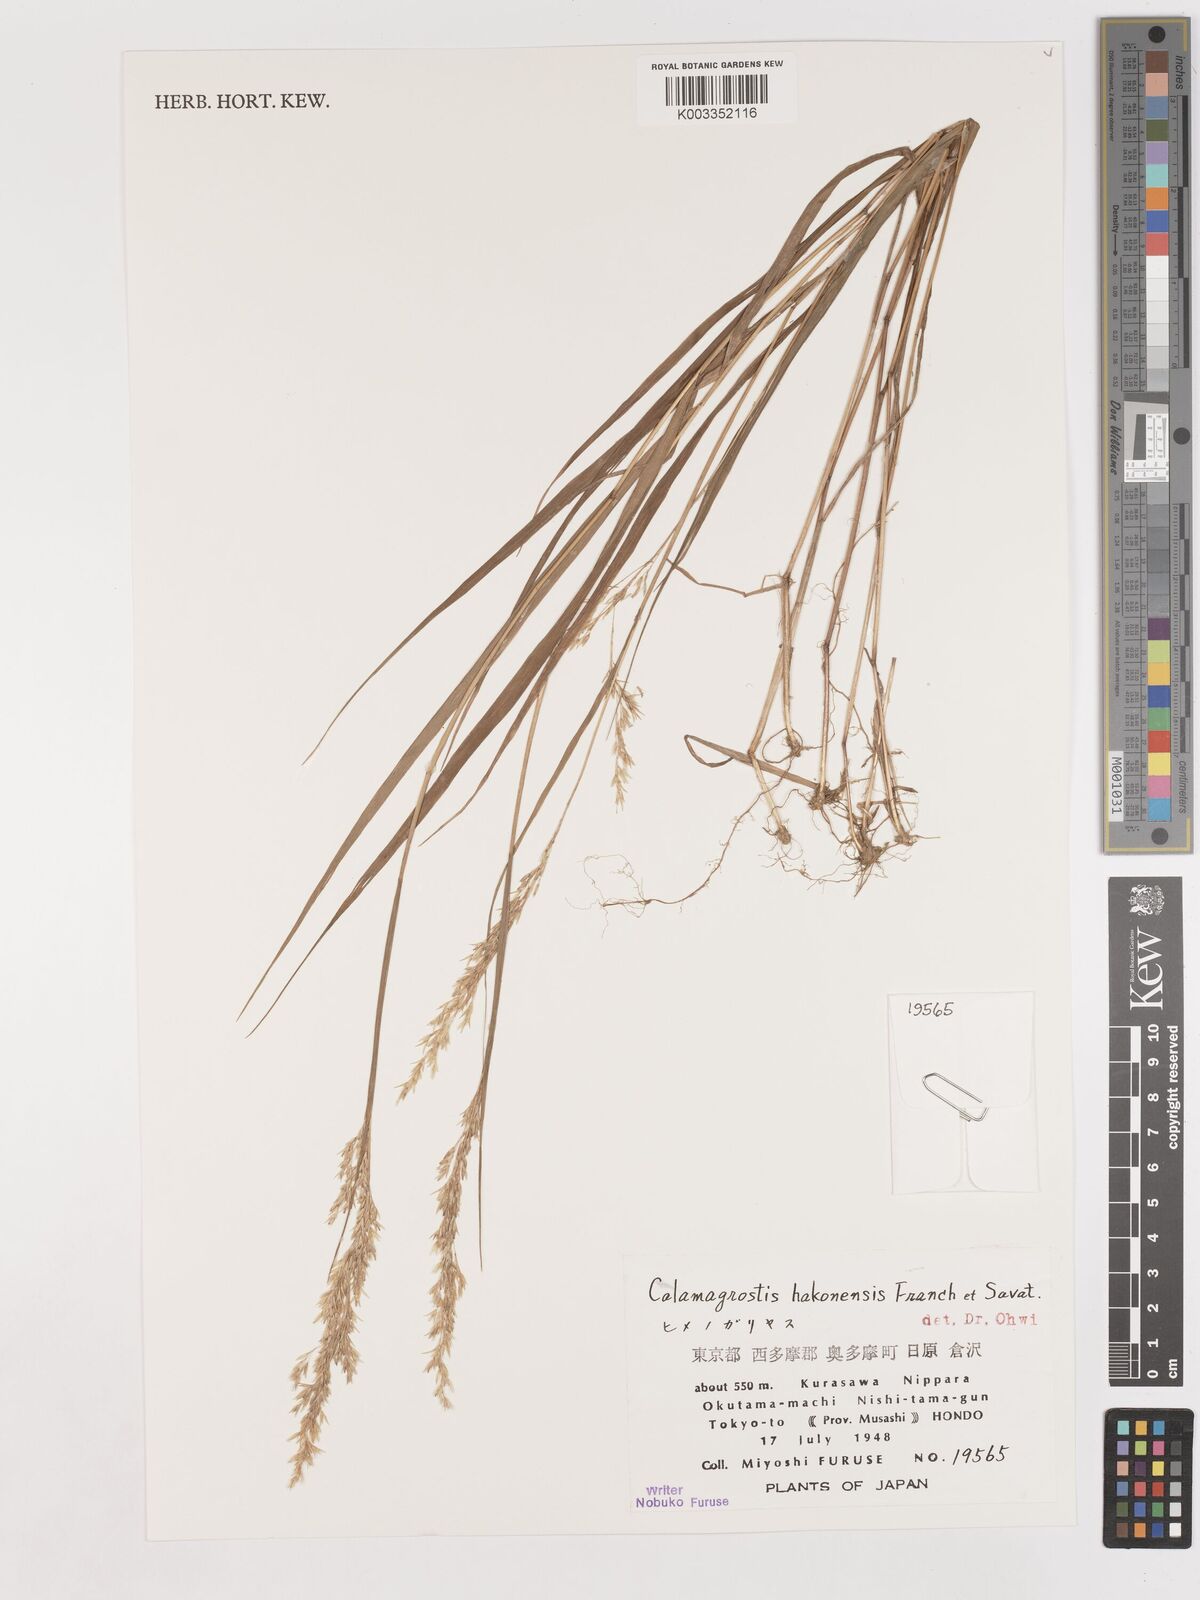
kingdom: Plantae
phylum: Tracheophyta
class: Liliopsida
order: Poales
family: Poaceae
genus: Calamagrostis
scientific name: Calamagrostis hakonensis
